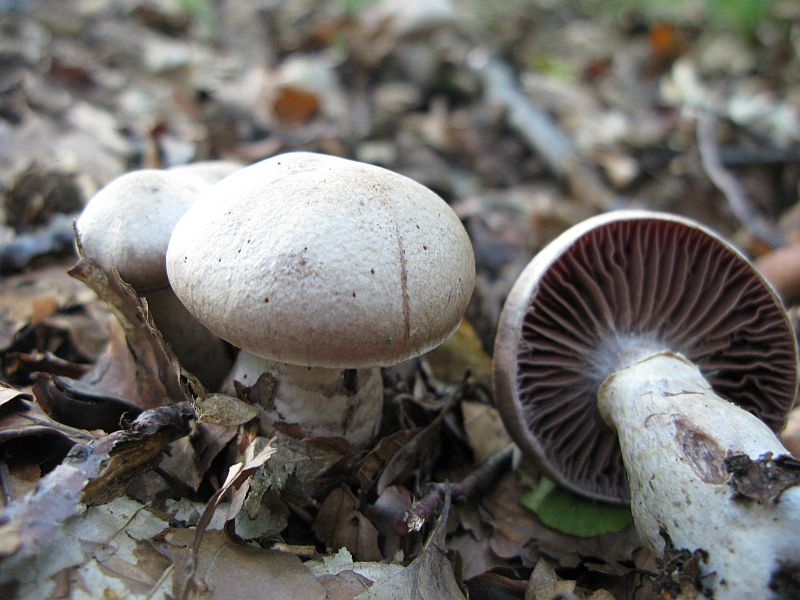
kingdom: Fungi
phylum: Basidiomycota
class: Agaricomycetes
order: Agaricales
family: Cortinariaceae
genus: Cortinarius
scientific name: Cortinarius torvus
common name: champignonagtig slørhat
